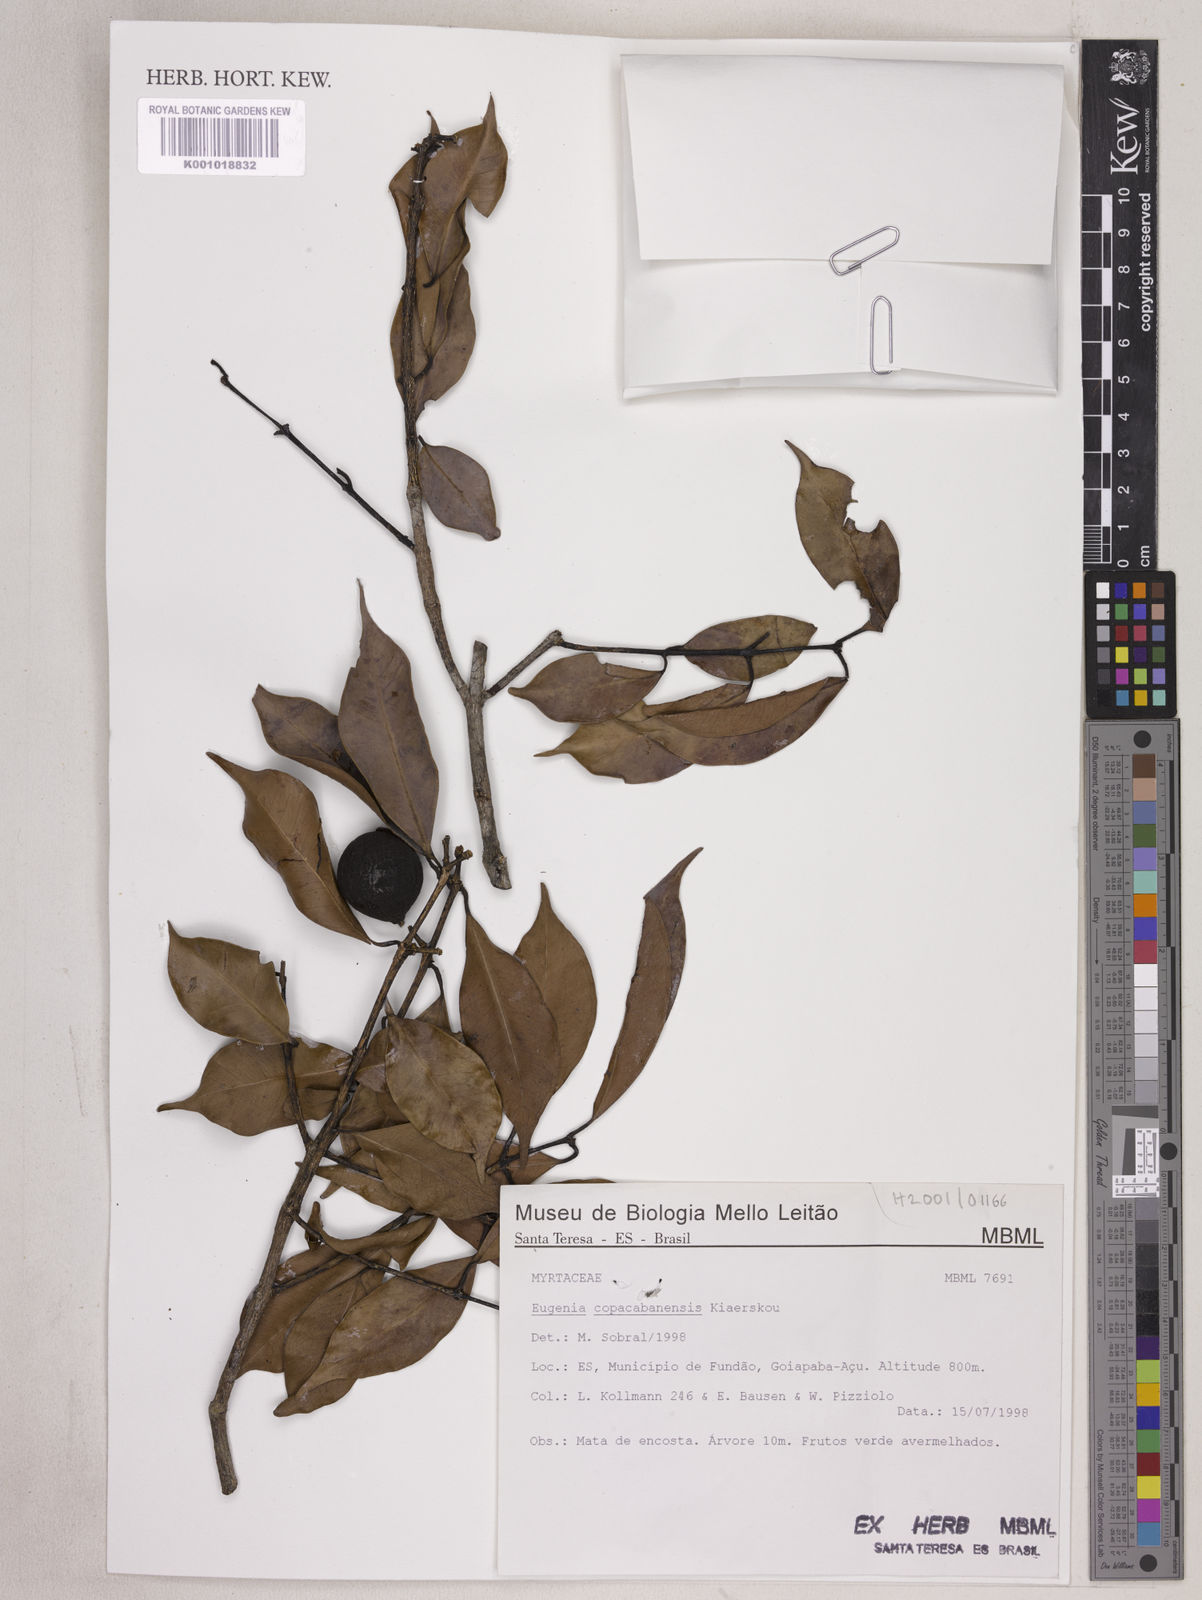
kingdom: Plantae
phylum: Tracheophyta
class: Magnoliopsida
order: Myrtales
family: Myrtaceae
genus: Eugenia
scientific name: Eugenia copacabanensis
